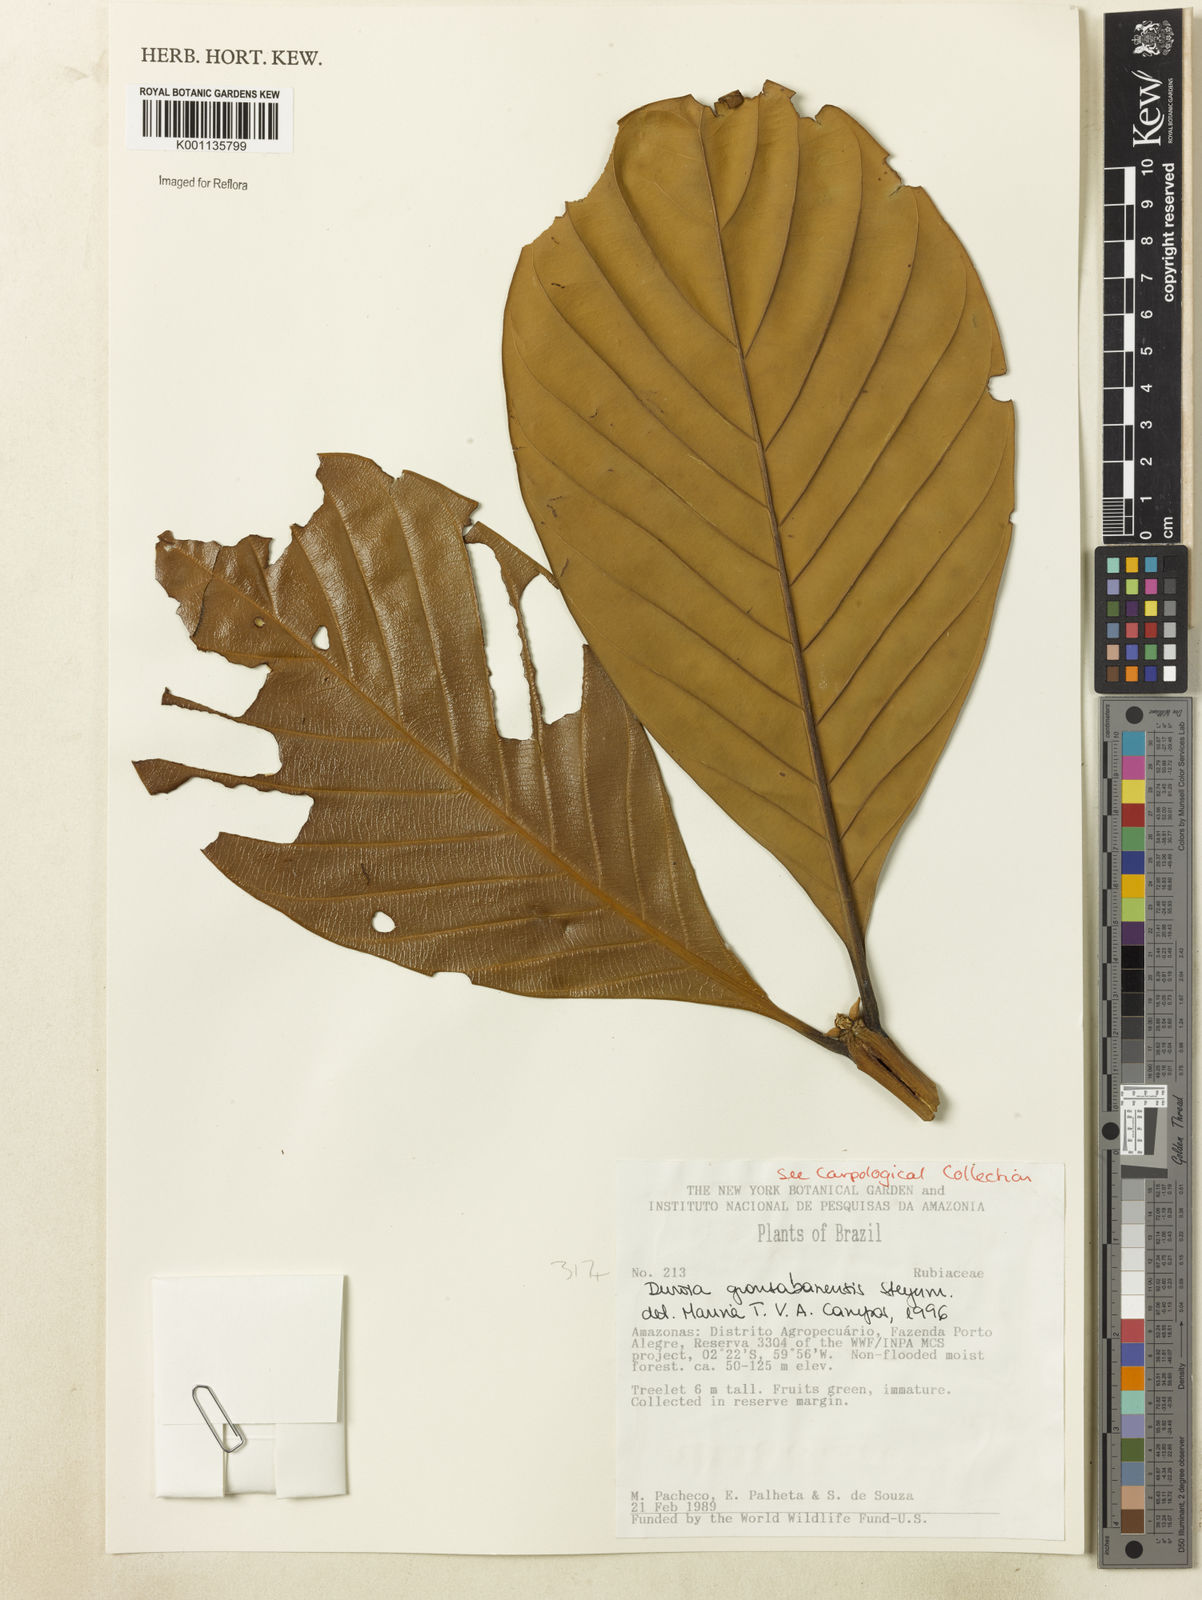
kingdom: Plantae
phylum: Tracheophyta
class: Magnoliopsida
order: Gentianales
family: Rubiaceae
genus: Duroia
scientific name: Duroia gransabanensis
